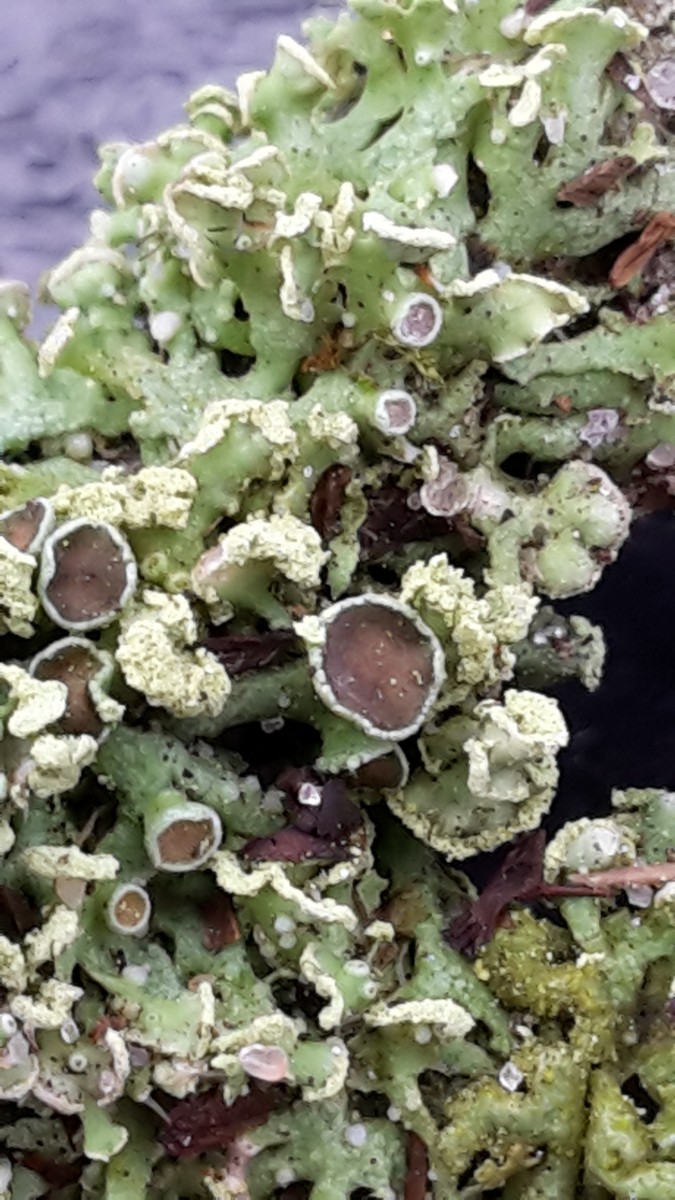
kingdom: Fungi
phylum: Ascomycota
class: Lecanoromycetes
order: Caliciales
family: Physciaceae
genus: Physcia
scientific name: Physcia tenella
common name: spæd rosetlav
